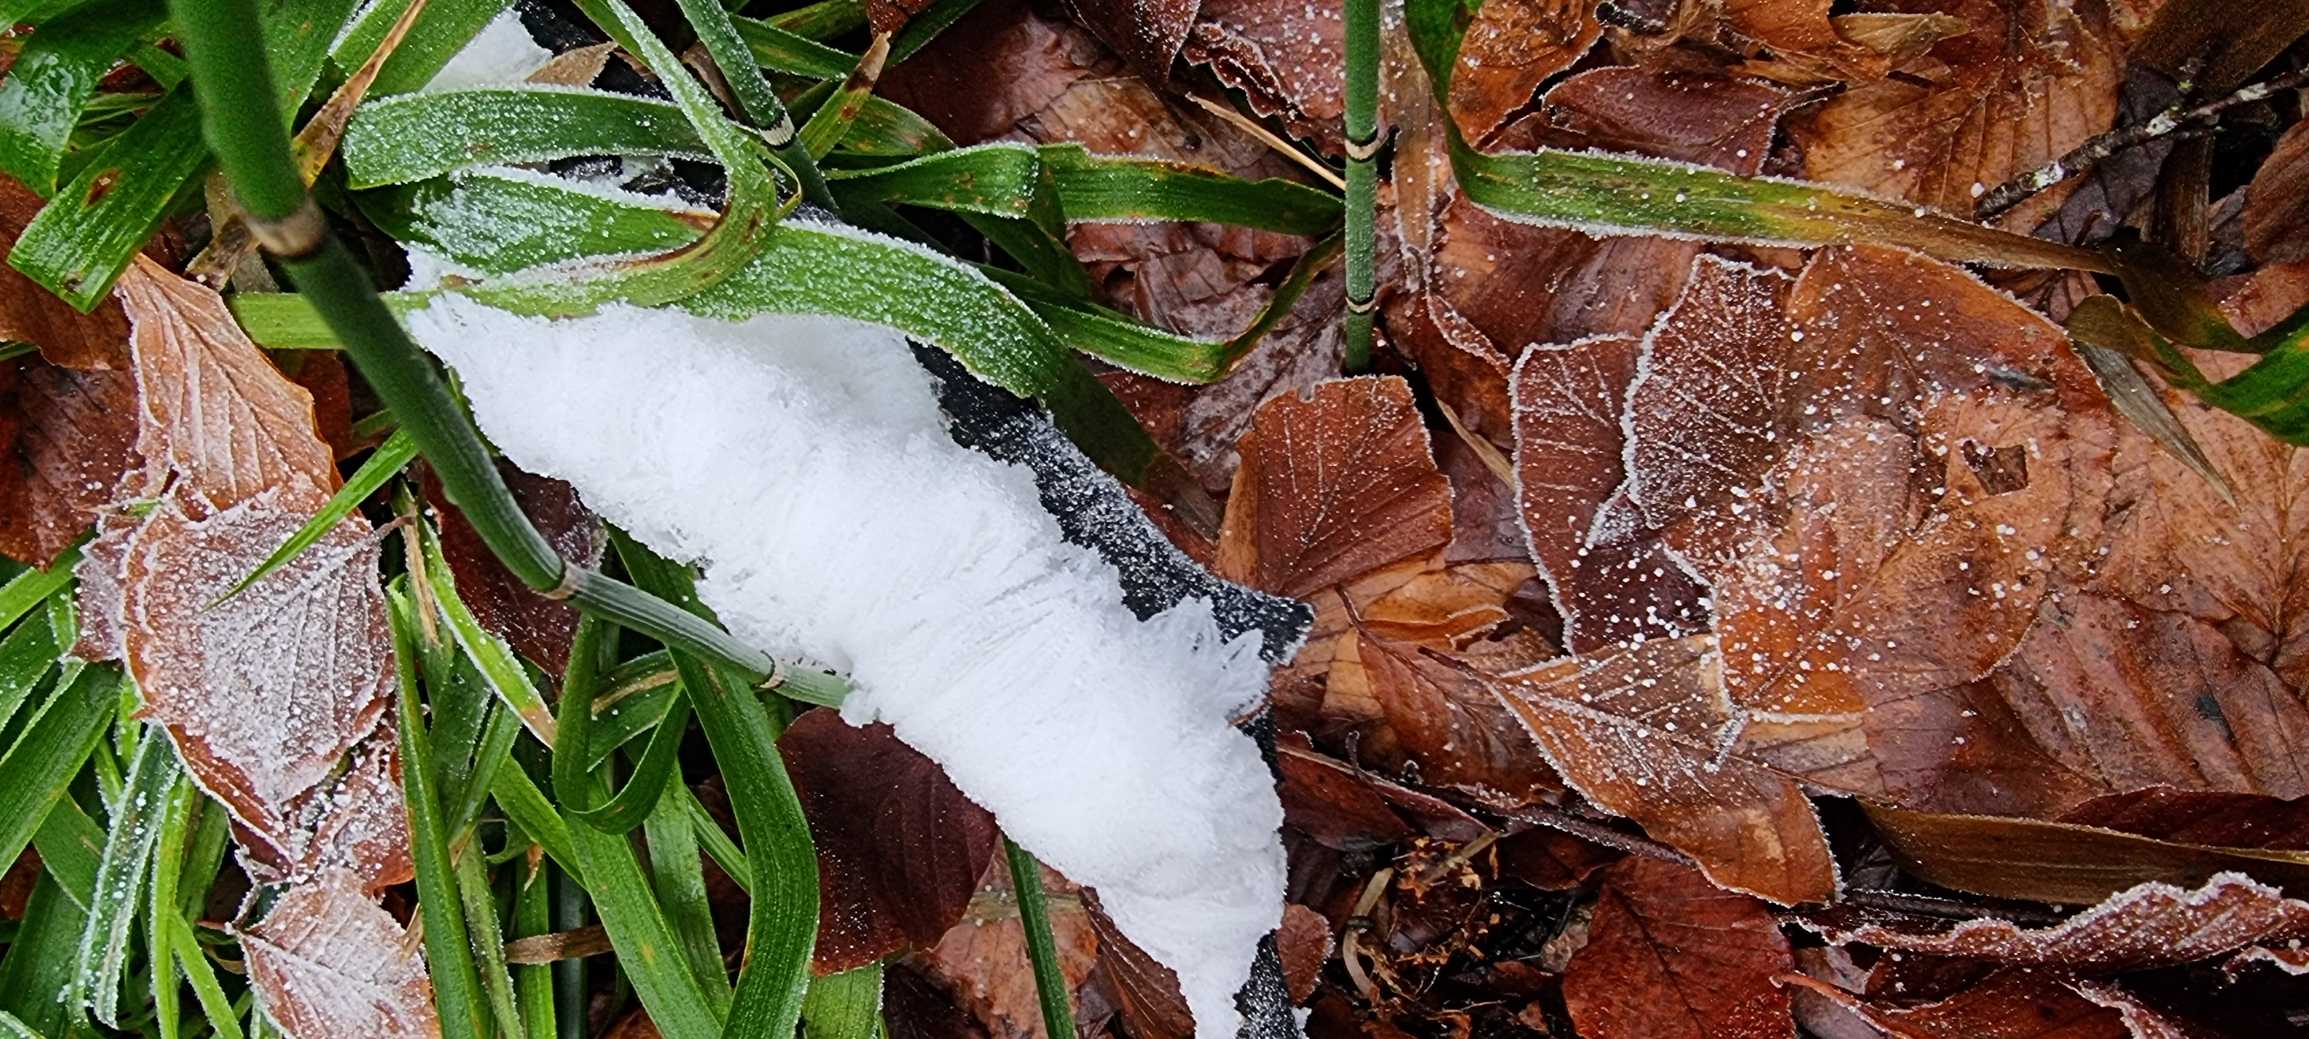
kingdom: Fungi
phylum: Basidiomycota
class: Tremellomycetes
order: Tremellales
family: Exidiaceae
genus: Exidiopsis
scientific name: Exidiopsis effusa
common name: Smuk bævrehinde
